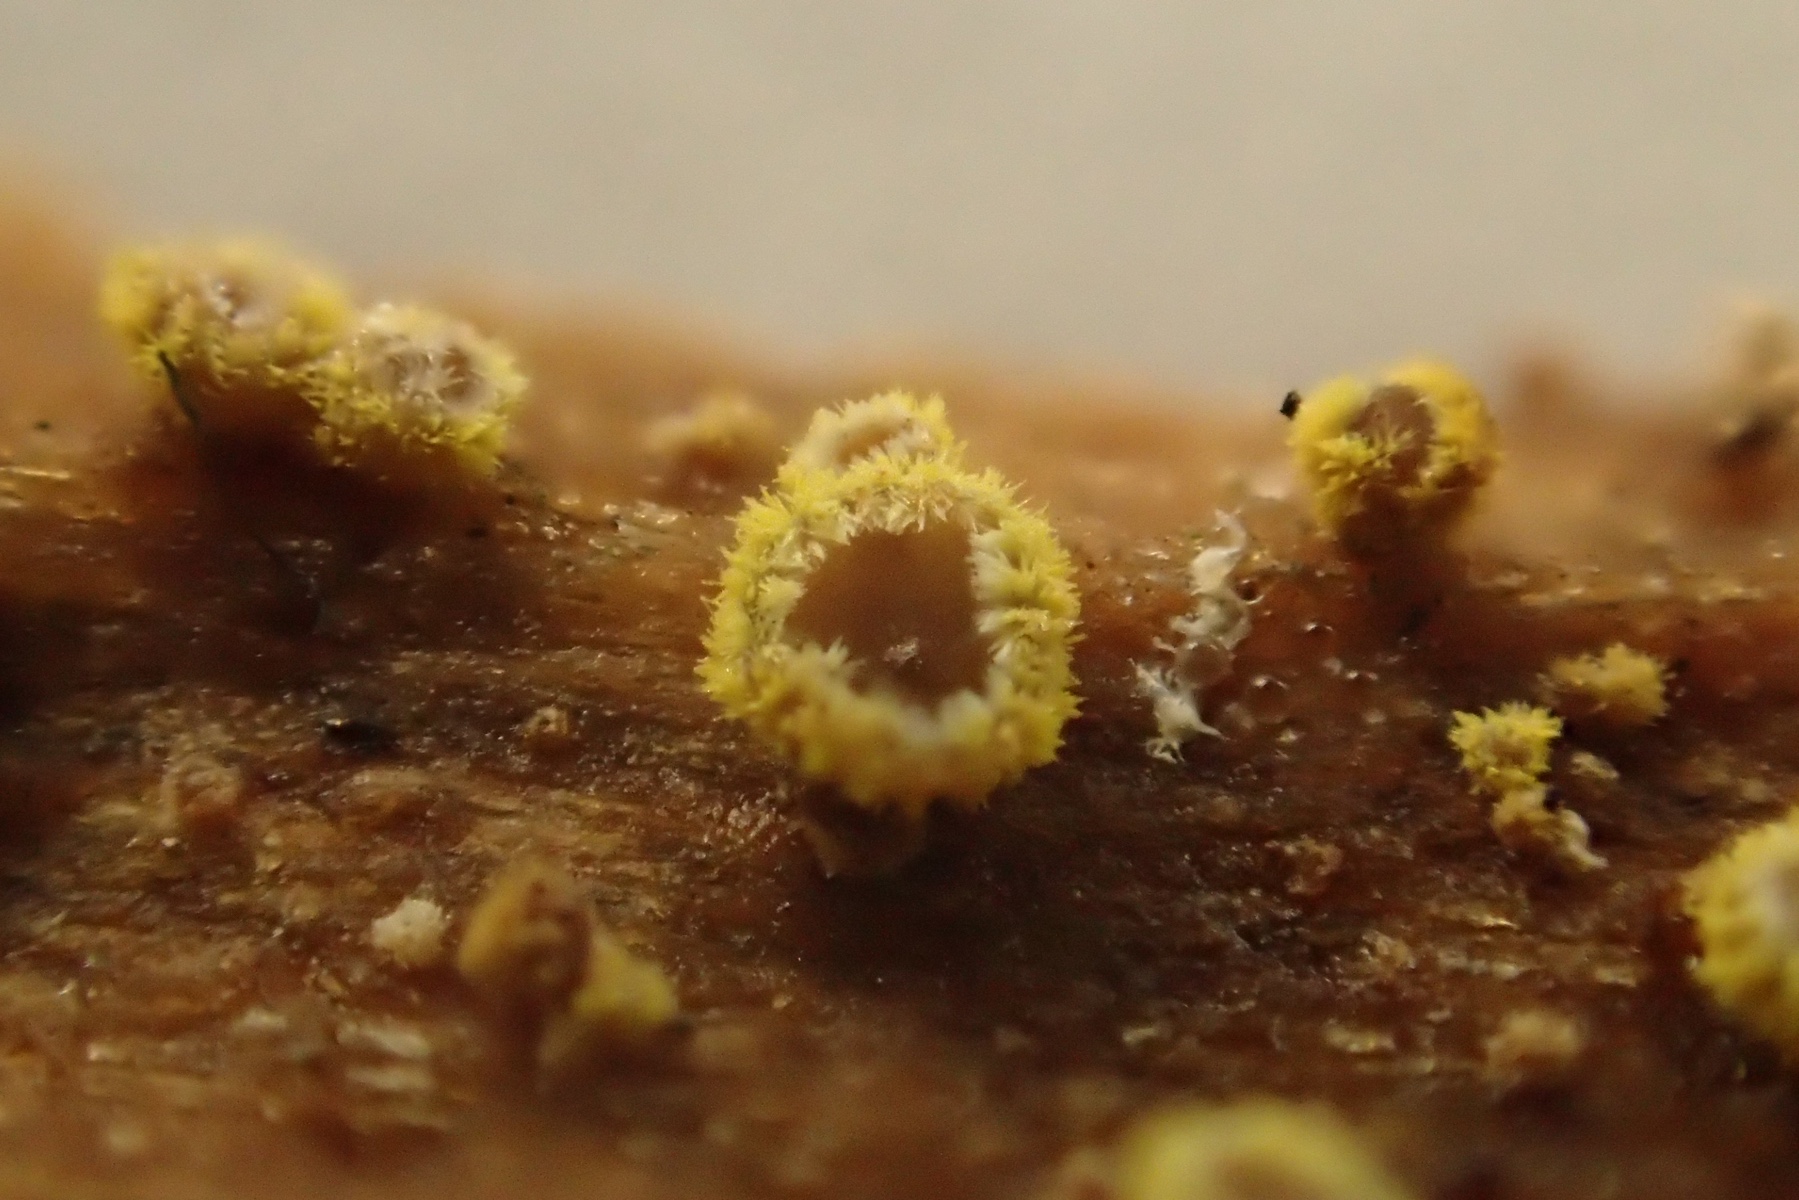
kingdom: Fungi
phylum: Ascomycota
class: Leotiomycetes
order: Helotiales
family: Lachnaceae
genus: Neodasyscypha
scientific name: Neodasyscypha cerina
